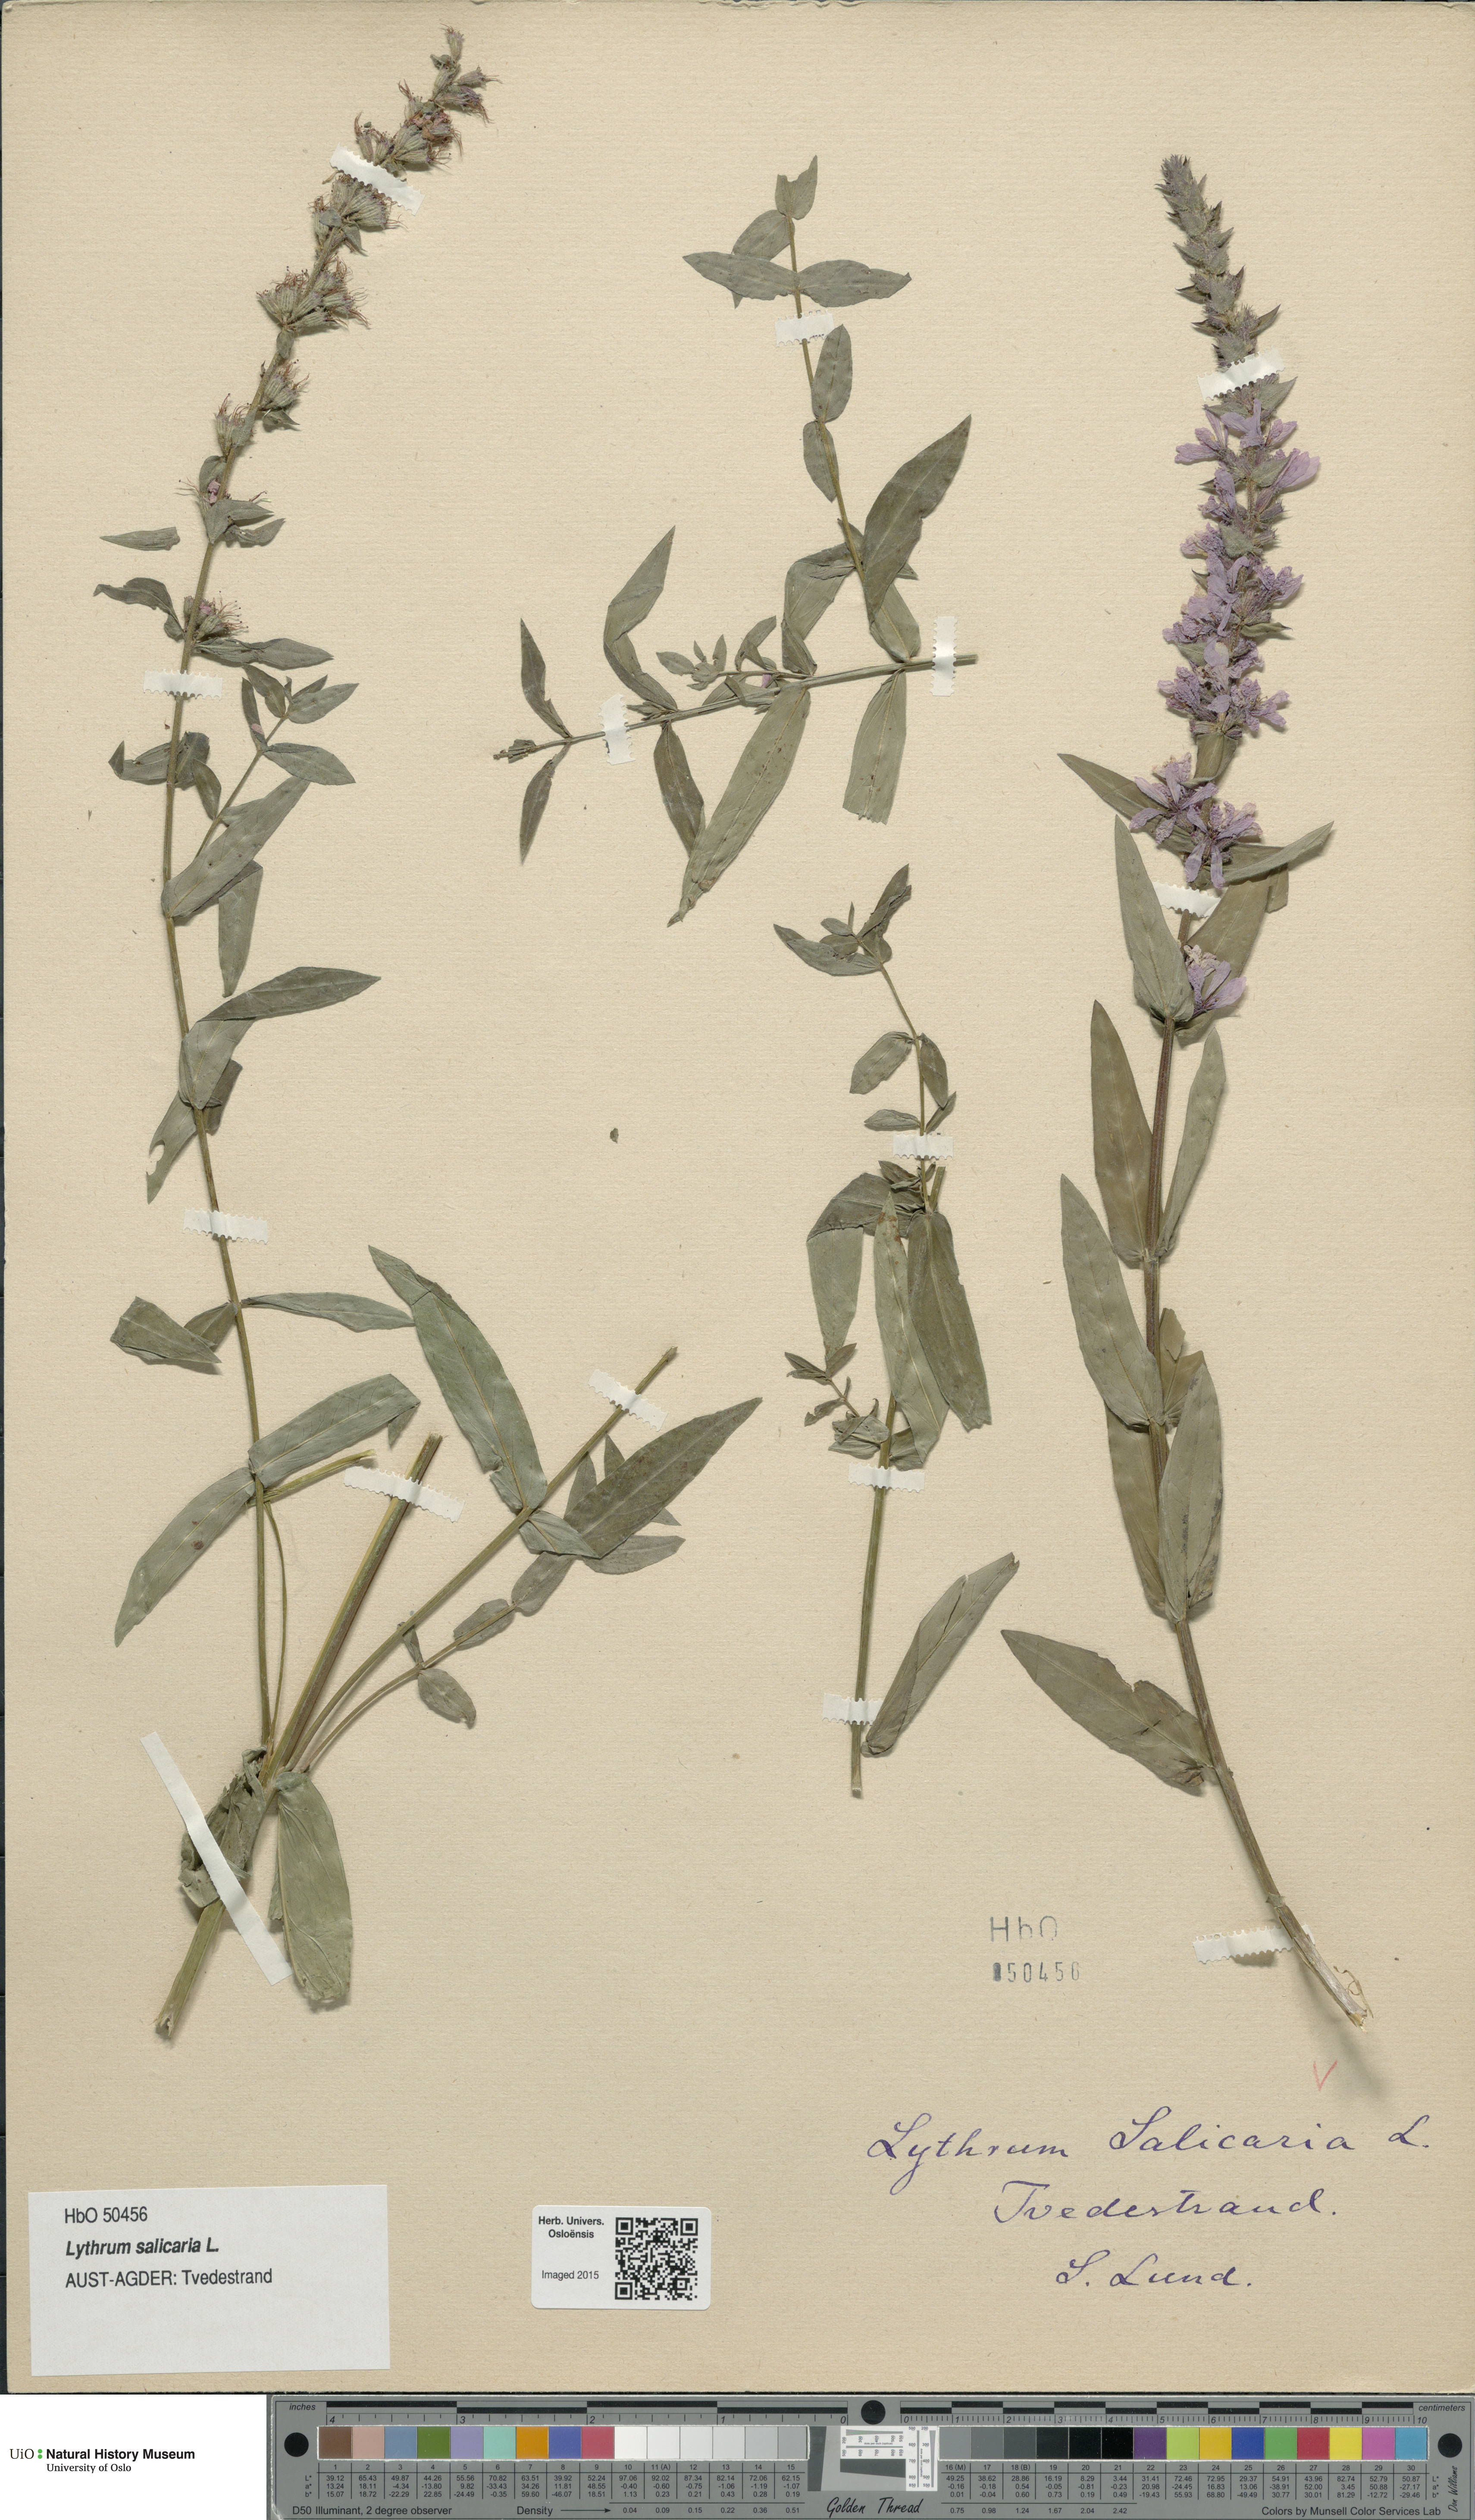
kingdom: Plantae
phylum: Tracheophyta
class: Magnoliopsida
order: Myrtales
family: Lythraceae
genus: Lythrum
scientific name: Lythrum salicaria
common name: Purple loosestrife
